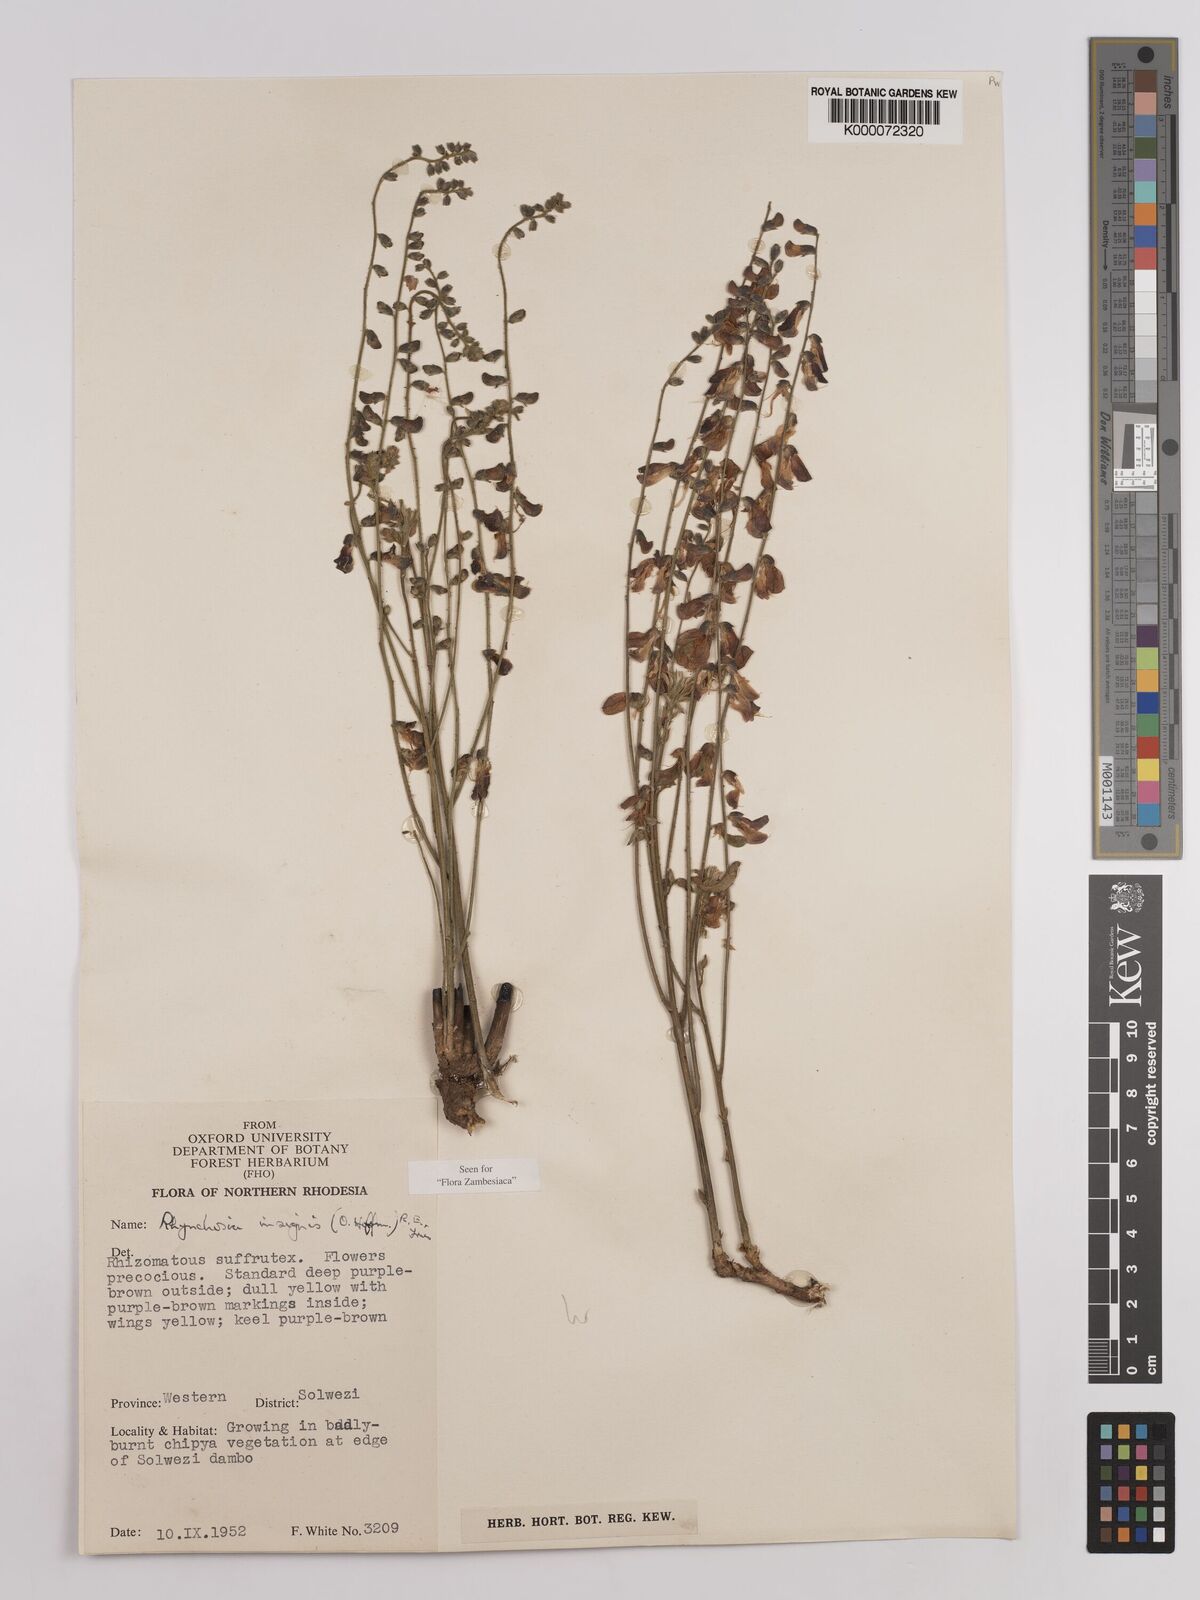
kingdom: Plantae
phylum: Tracheophyta
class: Magnoliopsida
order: Fabales
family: Fabaceae
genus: Rhynchosia
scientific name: Rhynchosia insignis
